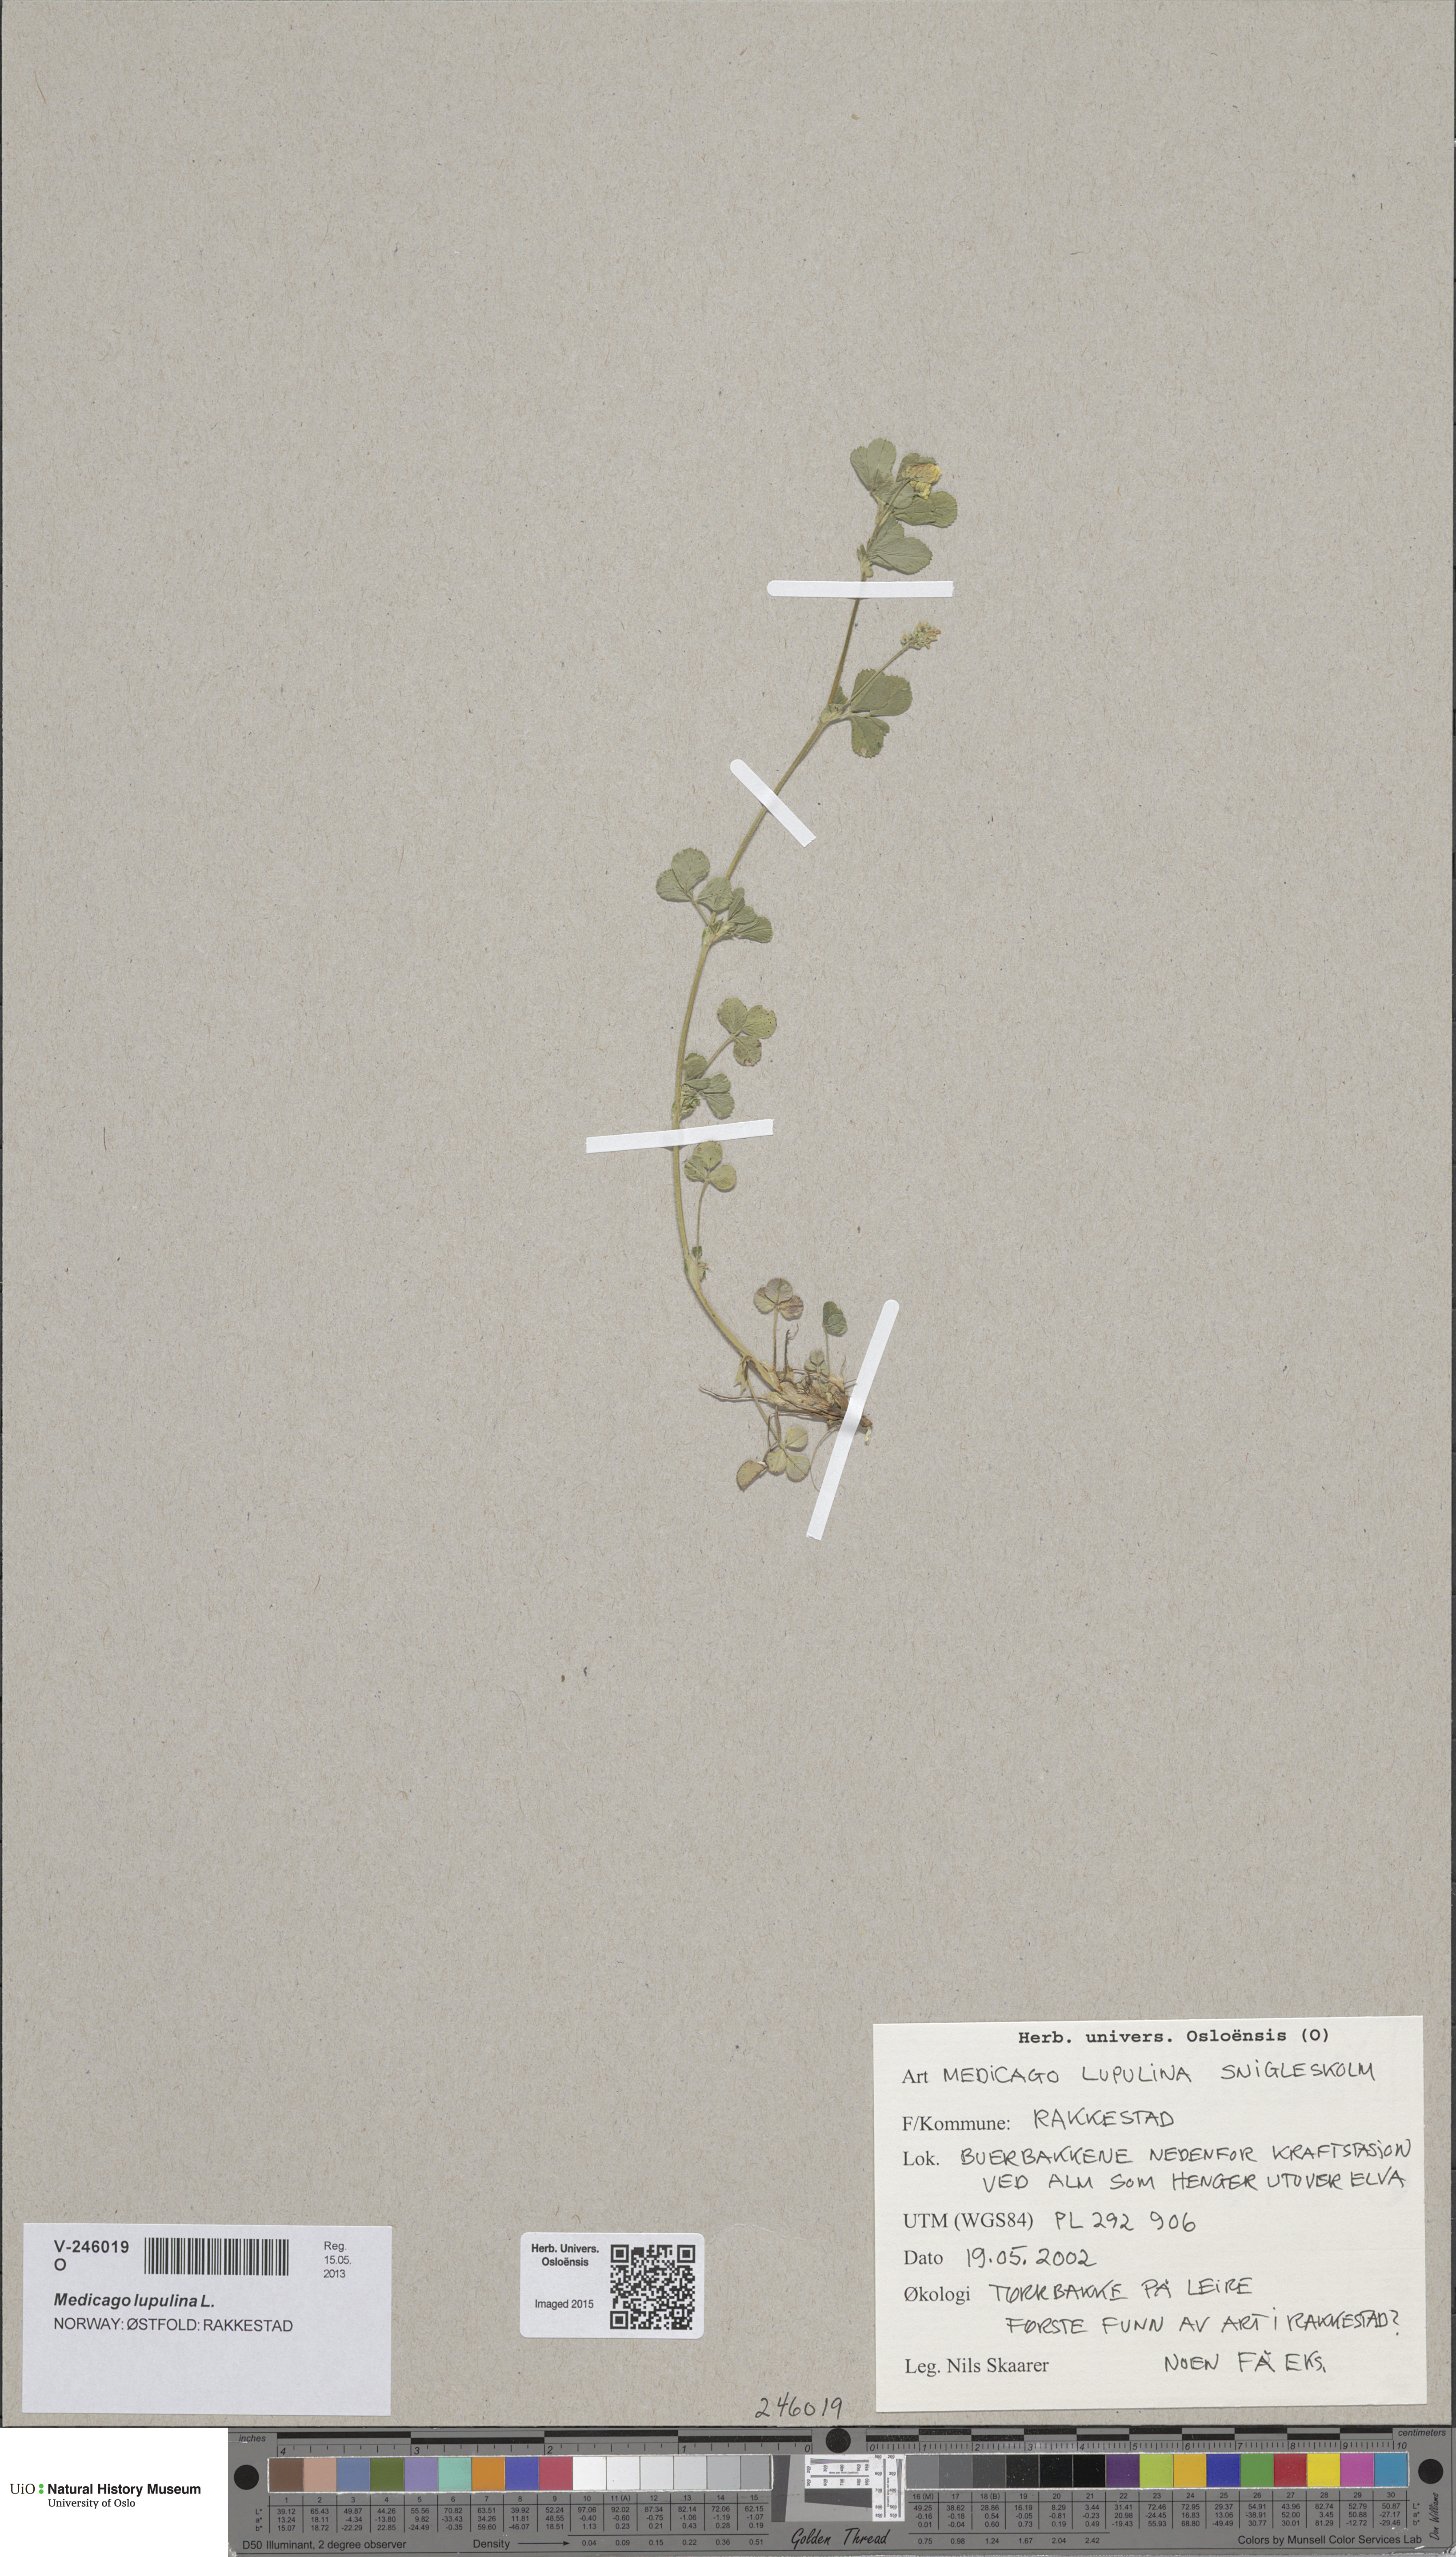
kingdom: Plantae
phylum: Tracheophyta
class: Magnoliopsida
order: Fabales
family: Fabaceae
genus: Medicago
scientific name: Medicago lupulina
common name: Black medick
